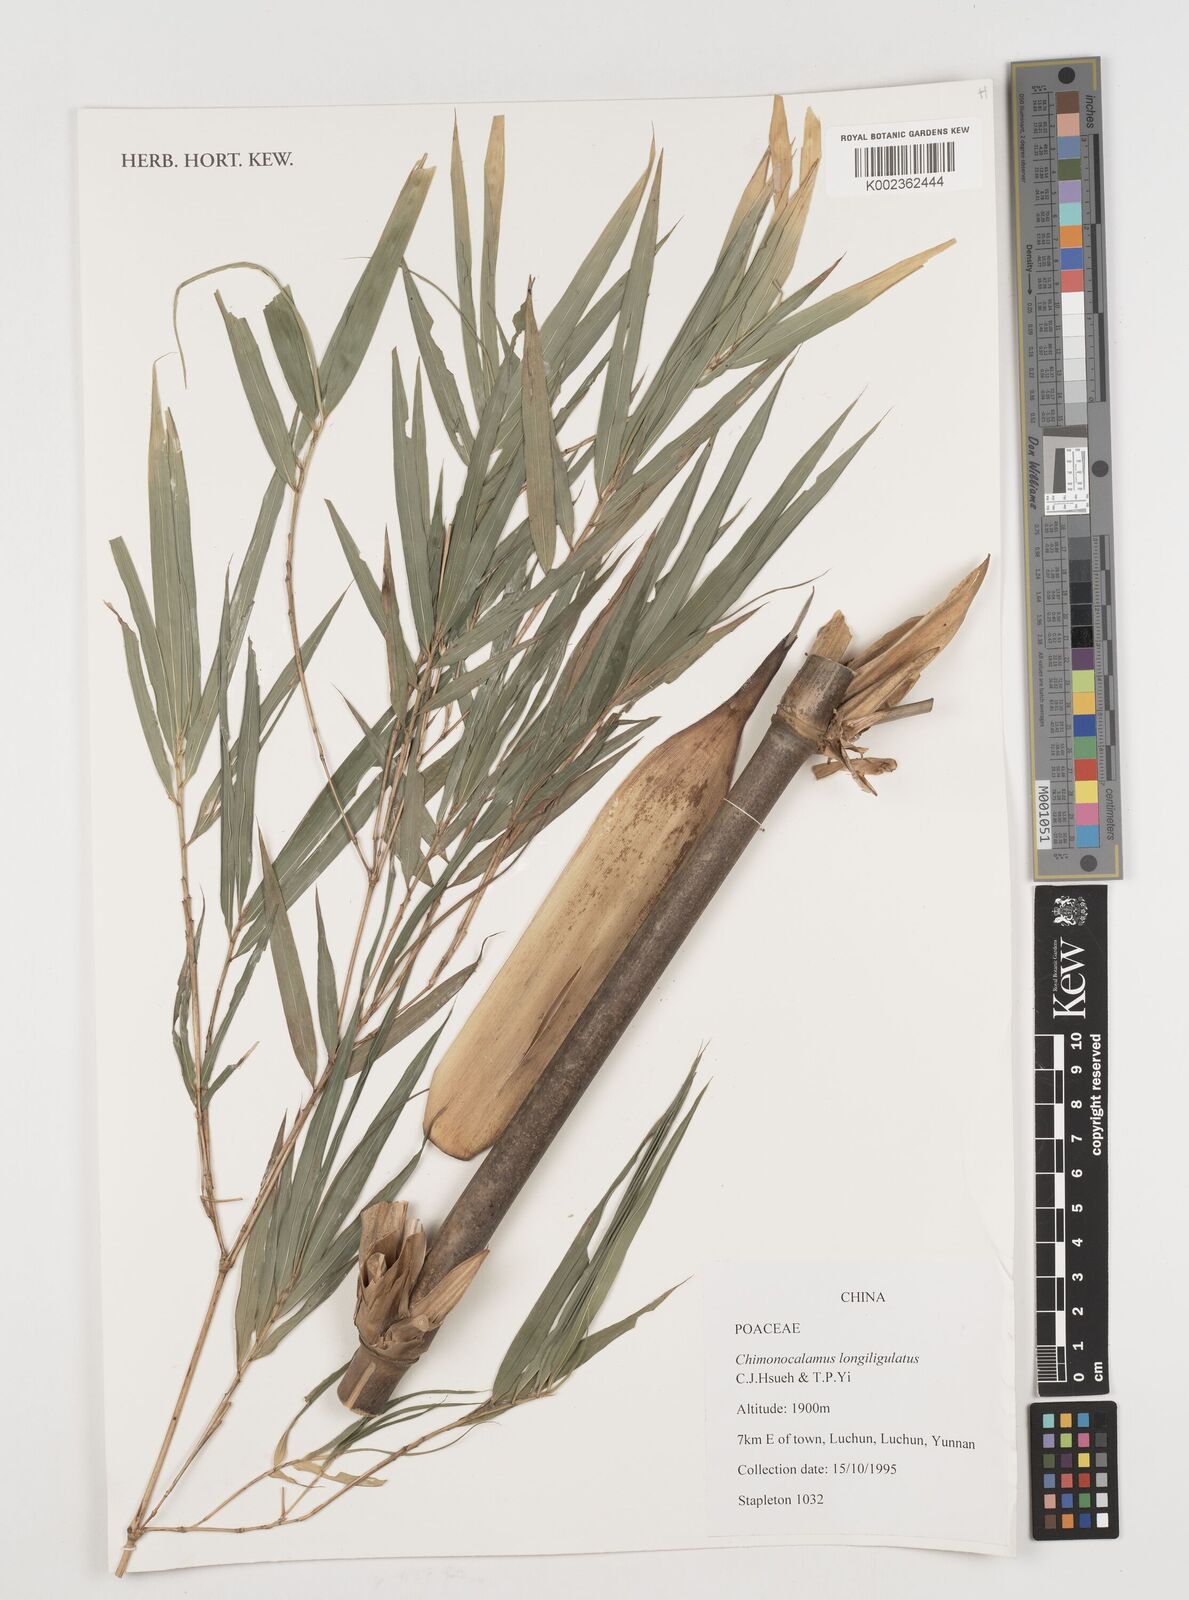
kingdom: Plantae
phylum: Tracheophyta
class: Liliopsida
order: Poales
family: Poaceae
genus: Oldeania
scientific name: Oldeania
